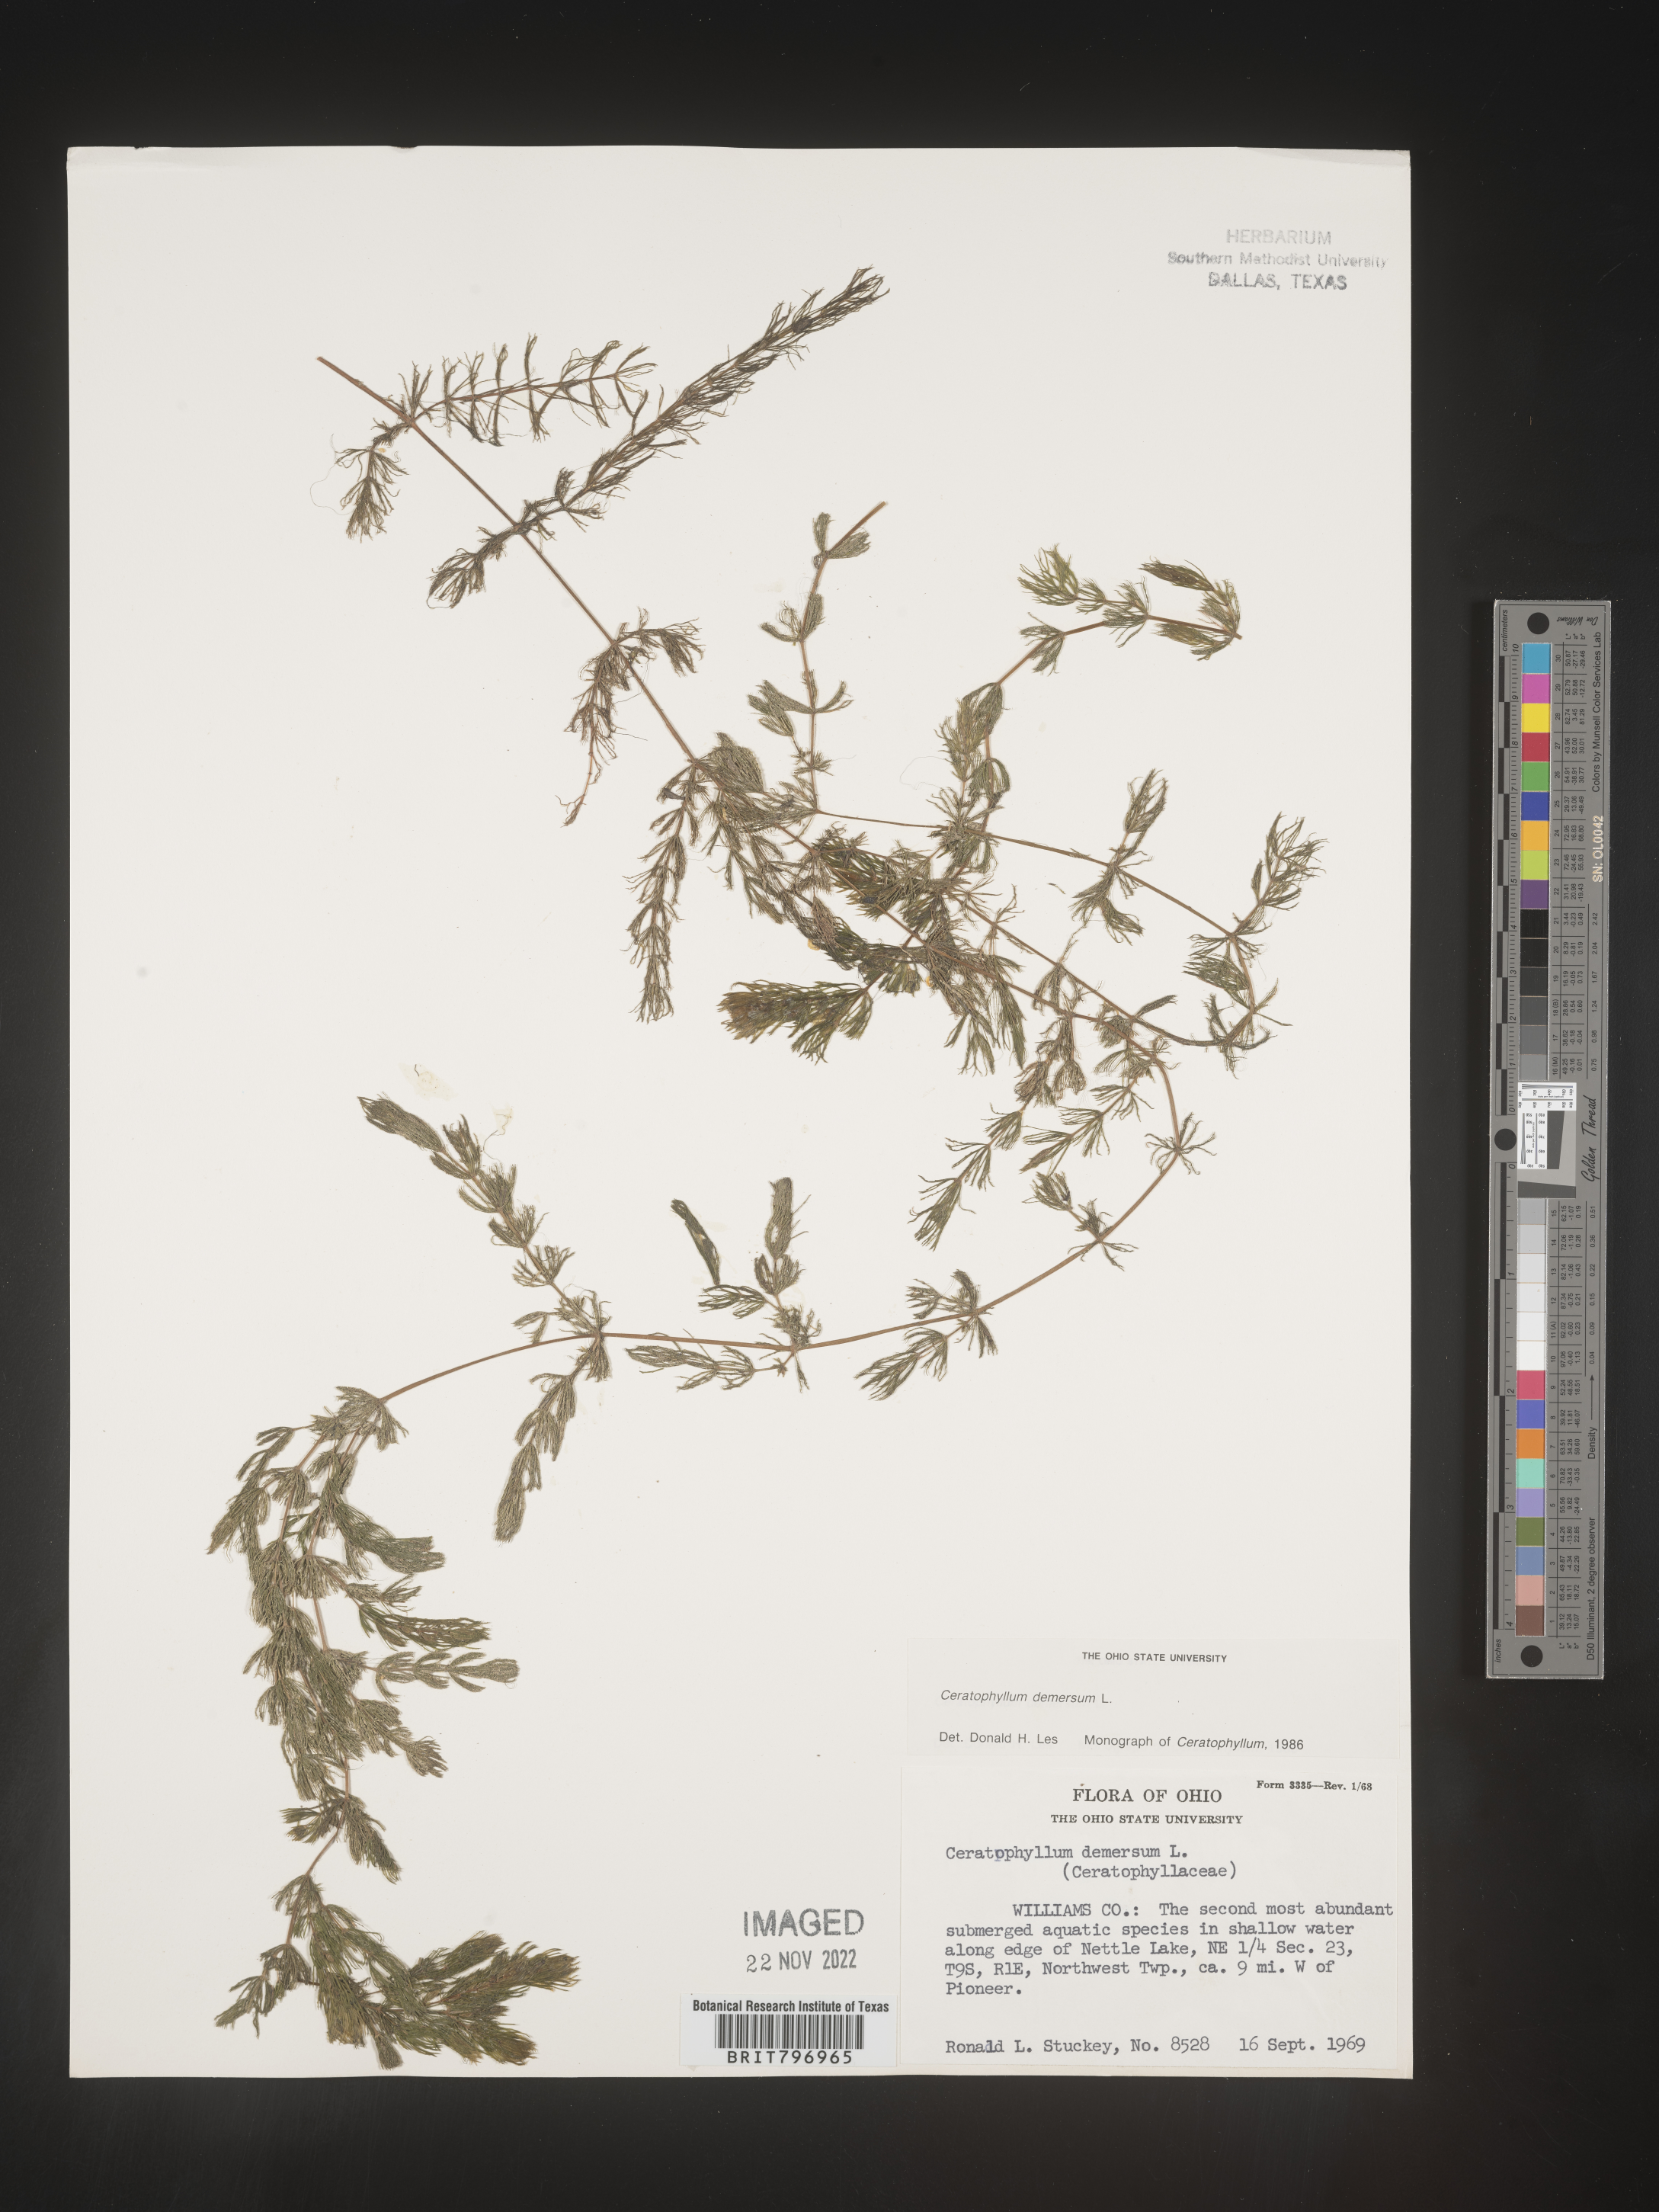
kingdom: Plantae
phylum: Tracheophyta
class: Magnoliopsida
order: Ceratophyllales
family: Ceratophyllaceae
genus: Ceratophyllum
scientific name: Ceratophyllum demersum
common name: Rigid hornwort
